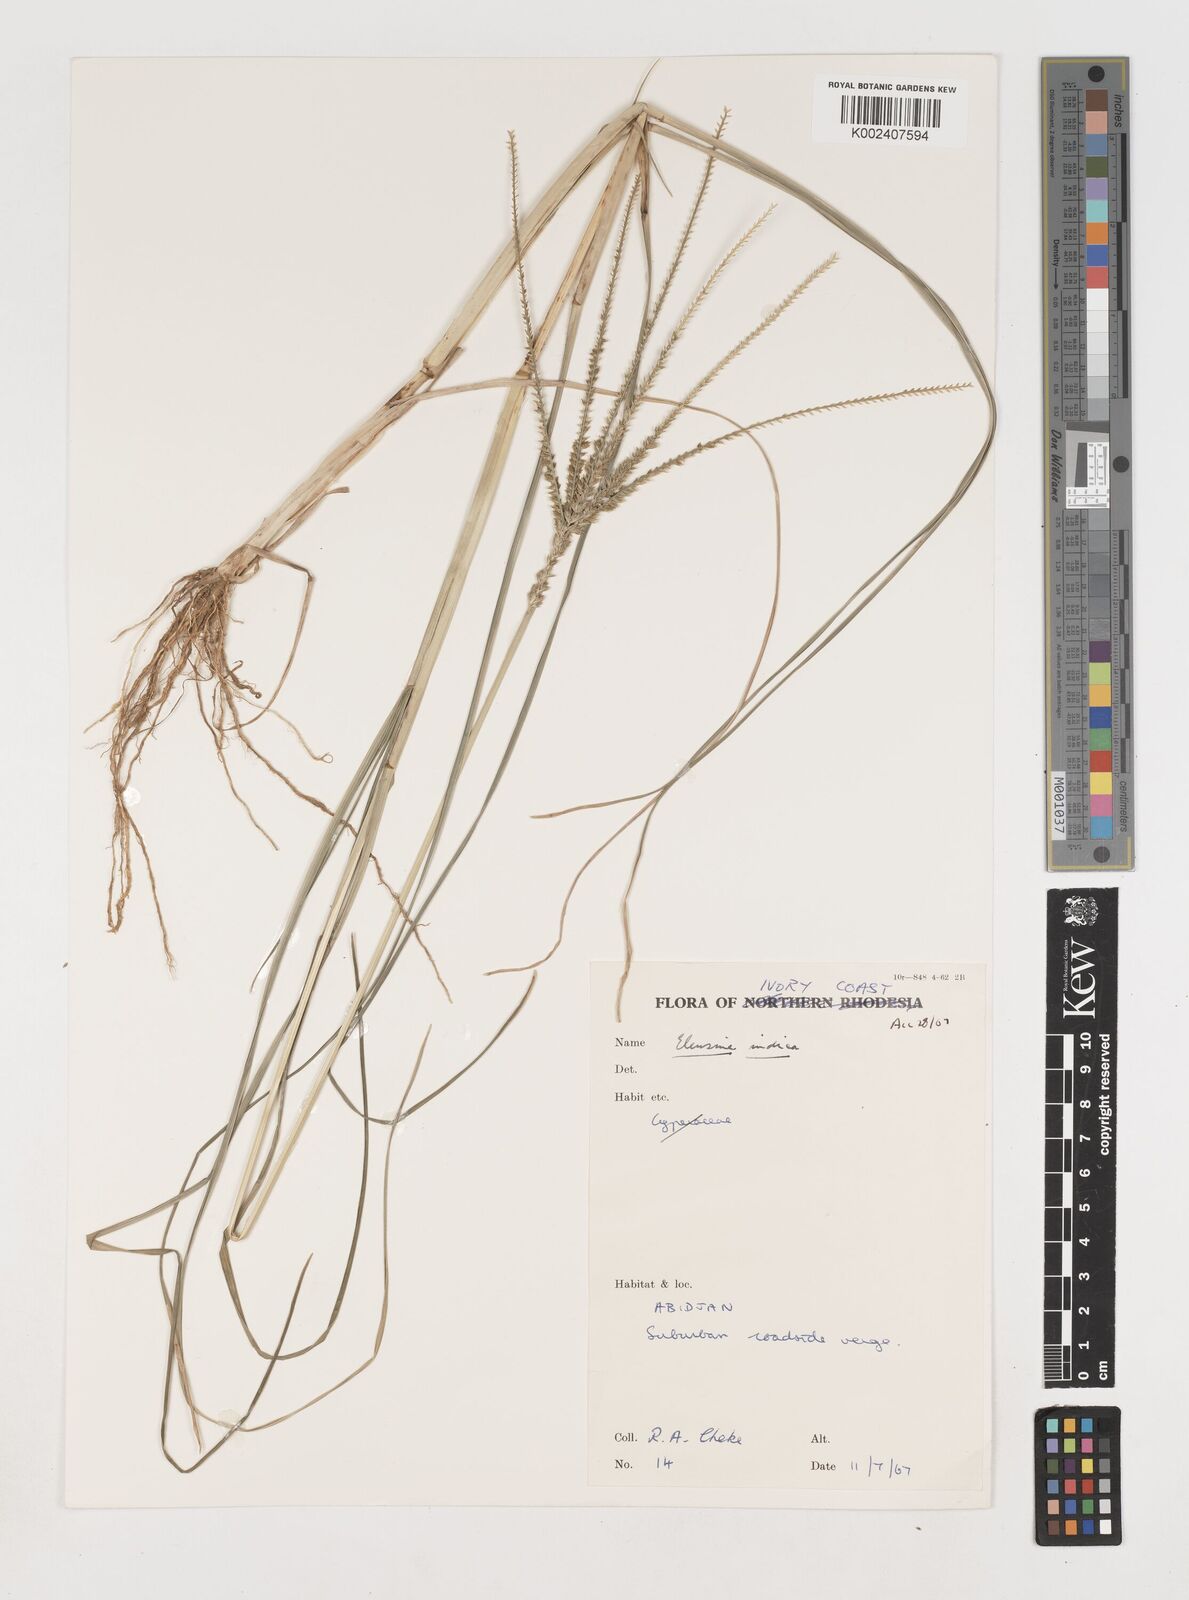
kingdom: Plantae
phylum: Tracheophyta
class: Liliopsida
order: Poales
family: Poaceae
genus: Eleusine
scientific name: Eleusine indica
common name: Yard-grass
